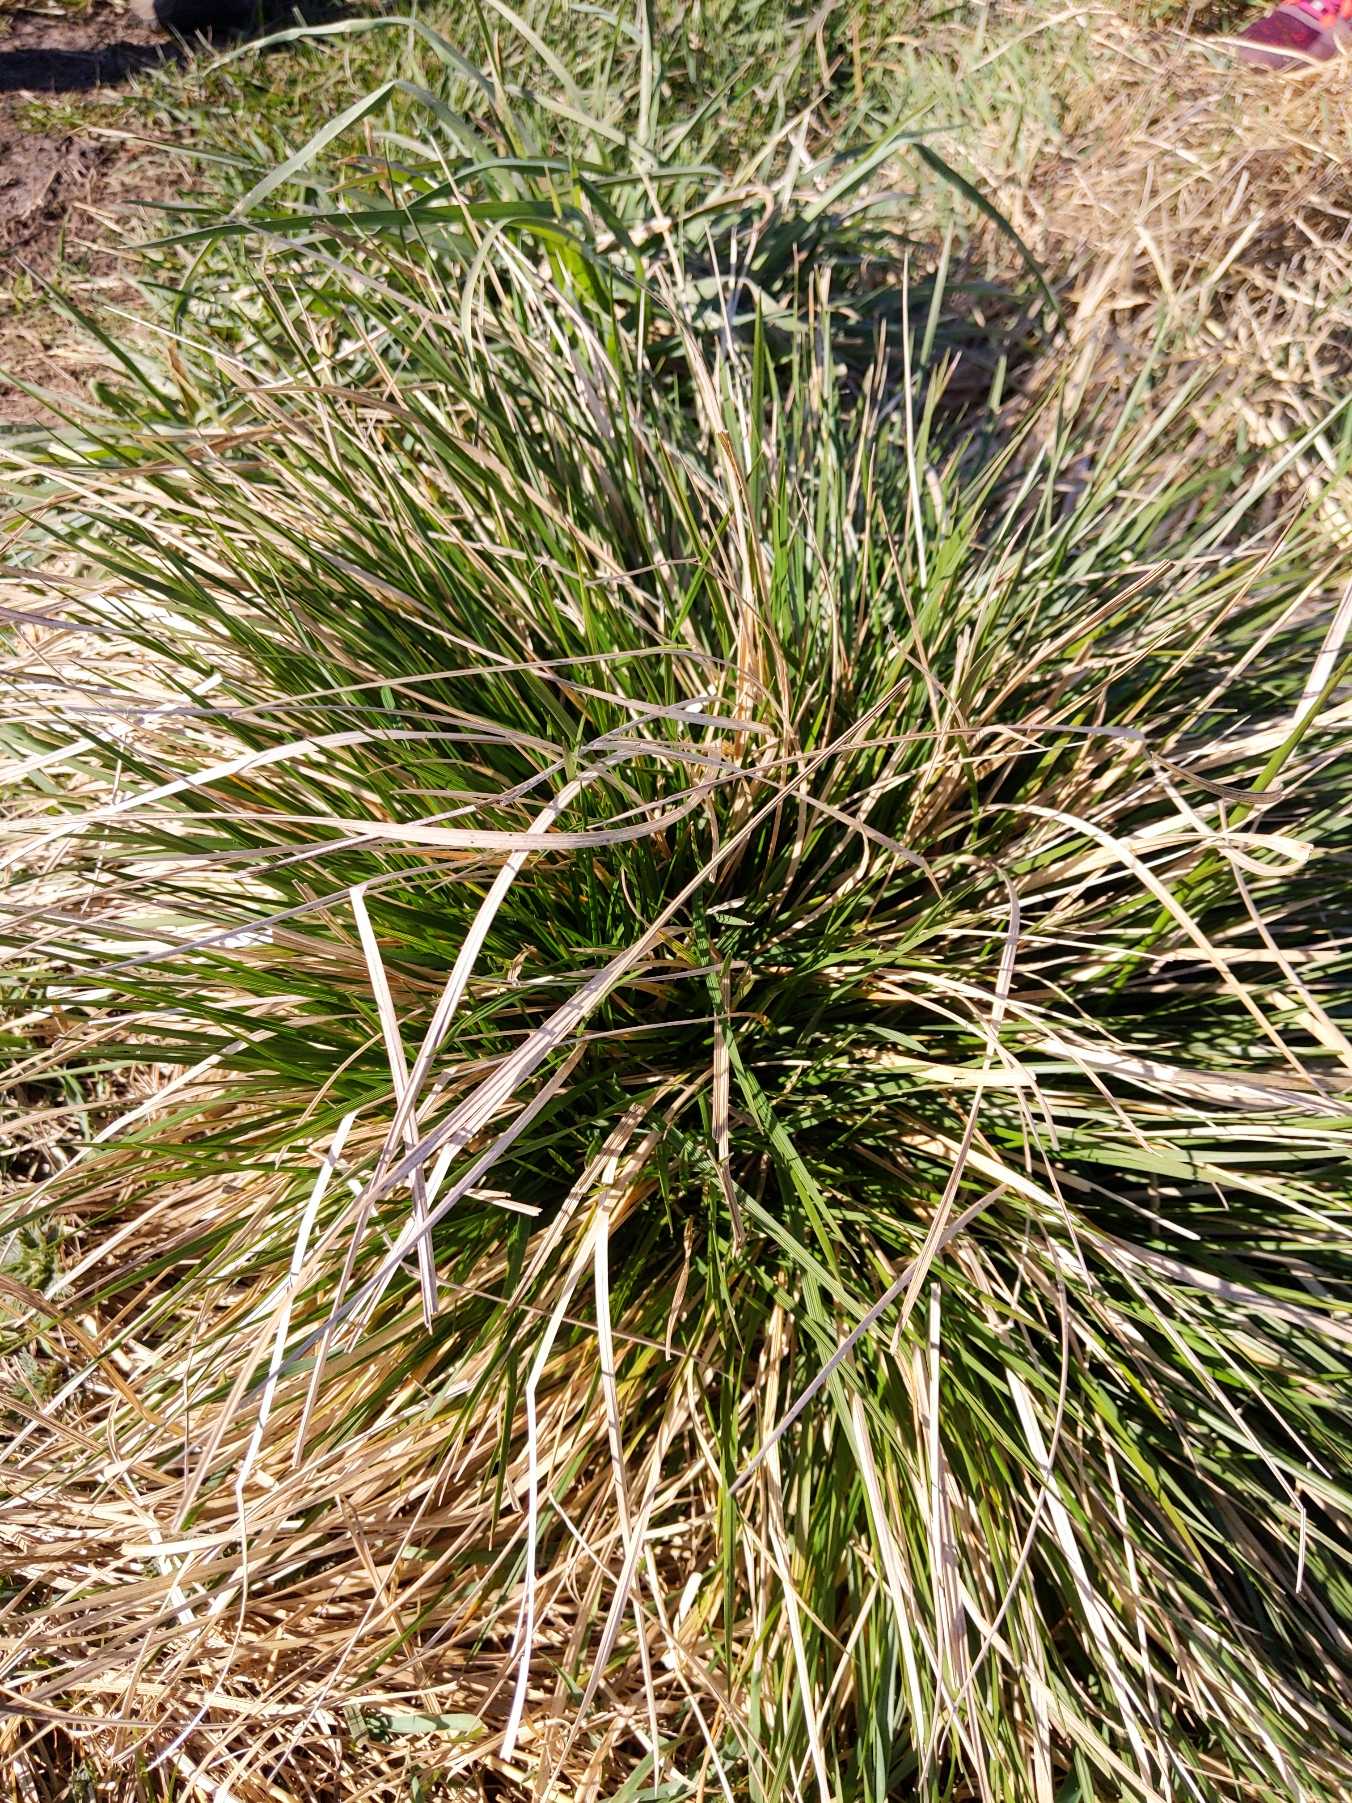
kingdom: Plantae
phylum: Tracheophyta
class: Liliopsida
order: Poales
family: Poaceae
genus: Deschampsia
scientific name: Deschampsia cespitosa
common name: Mose-bunke
